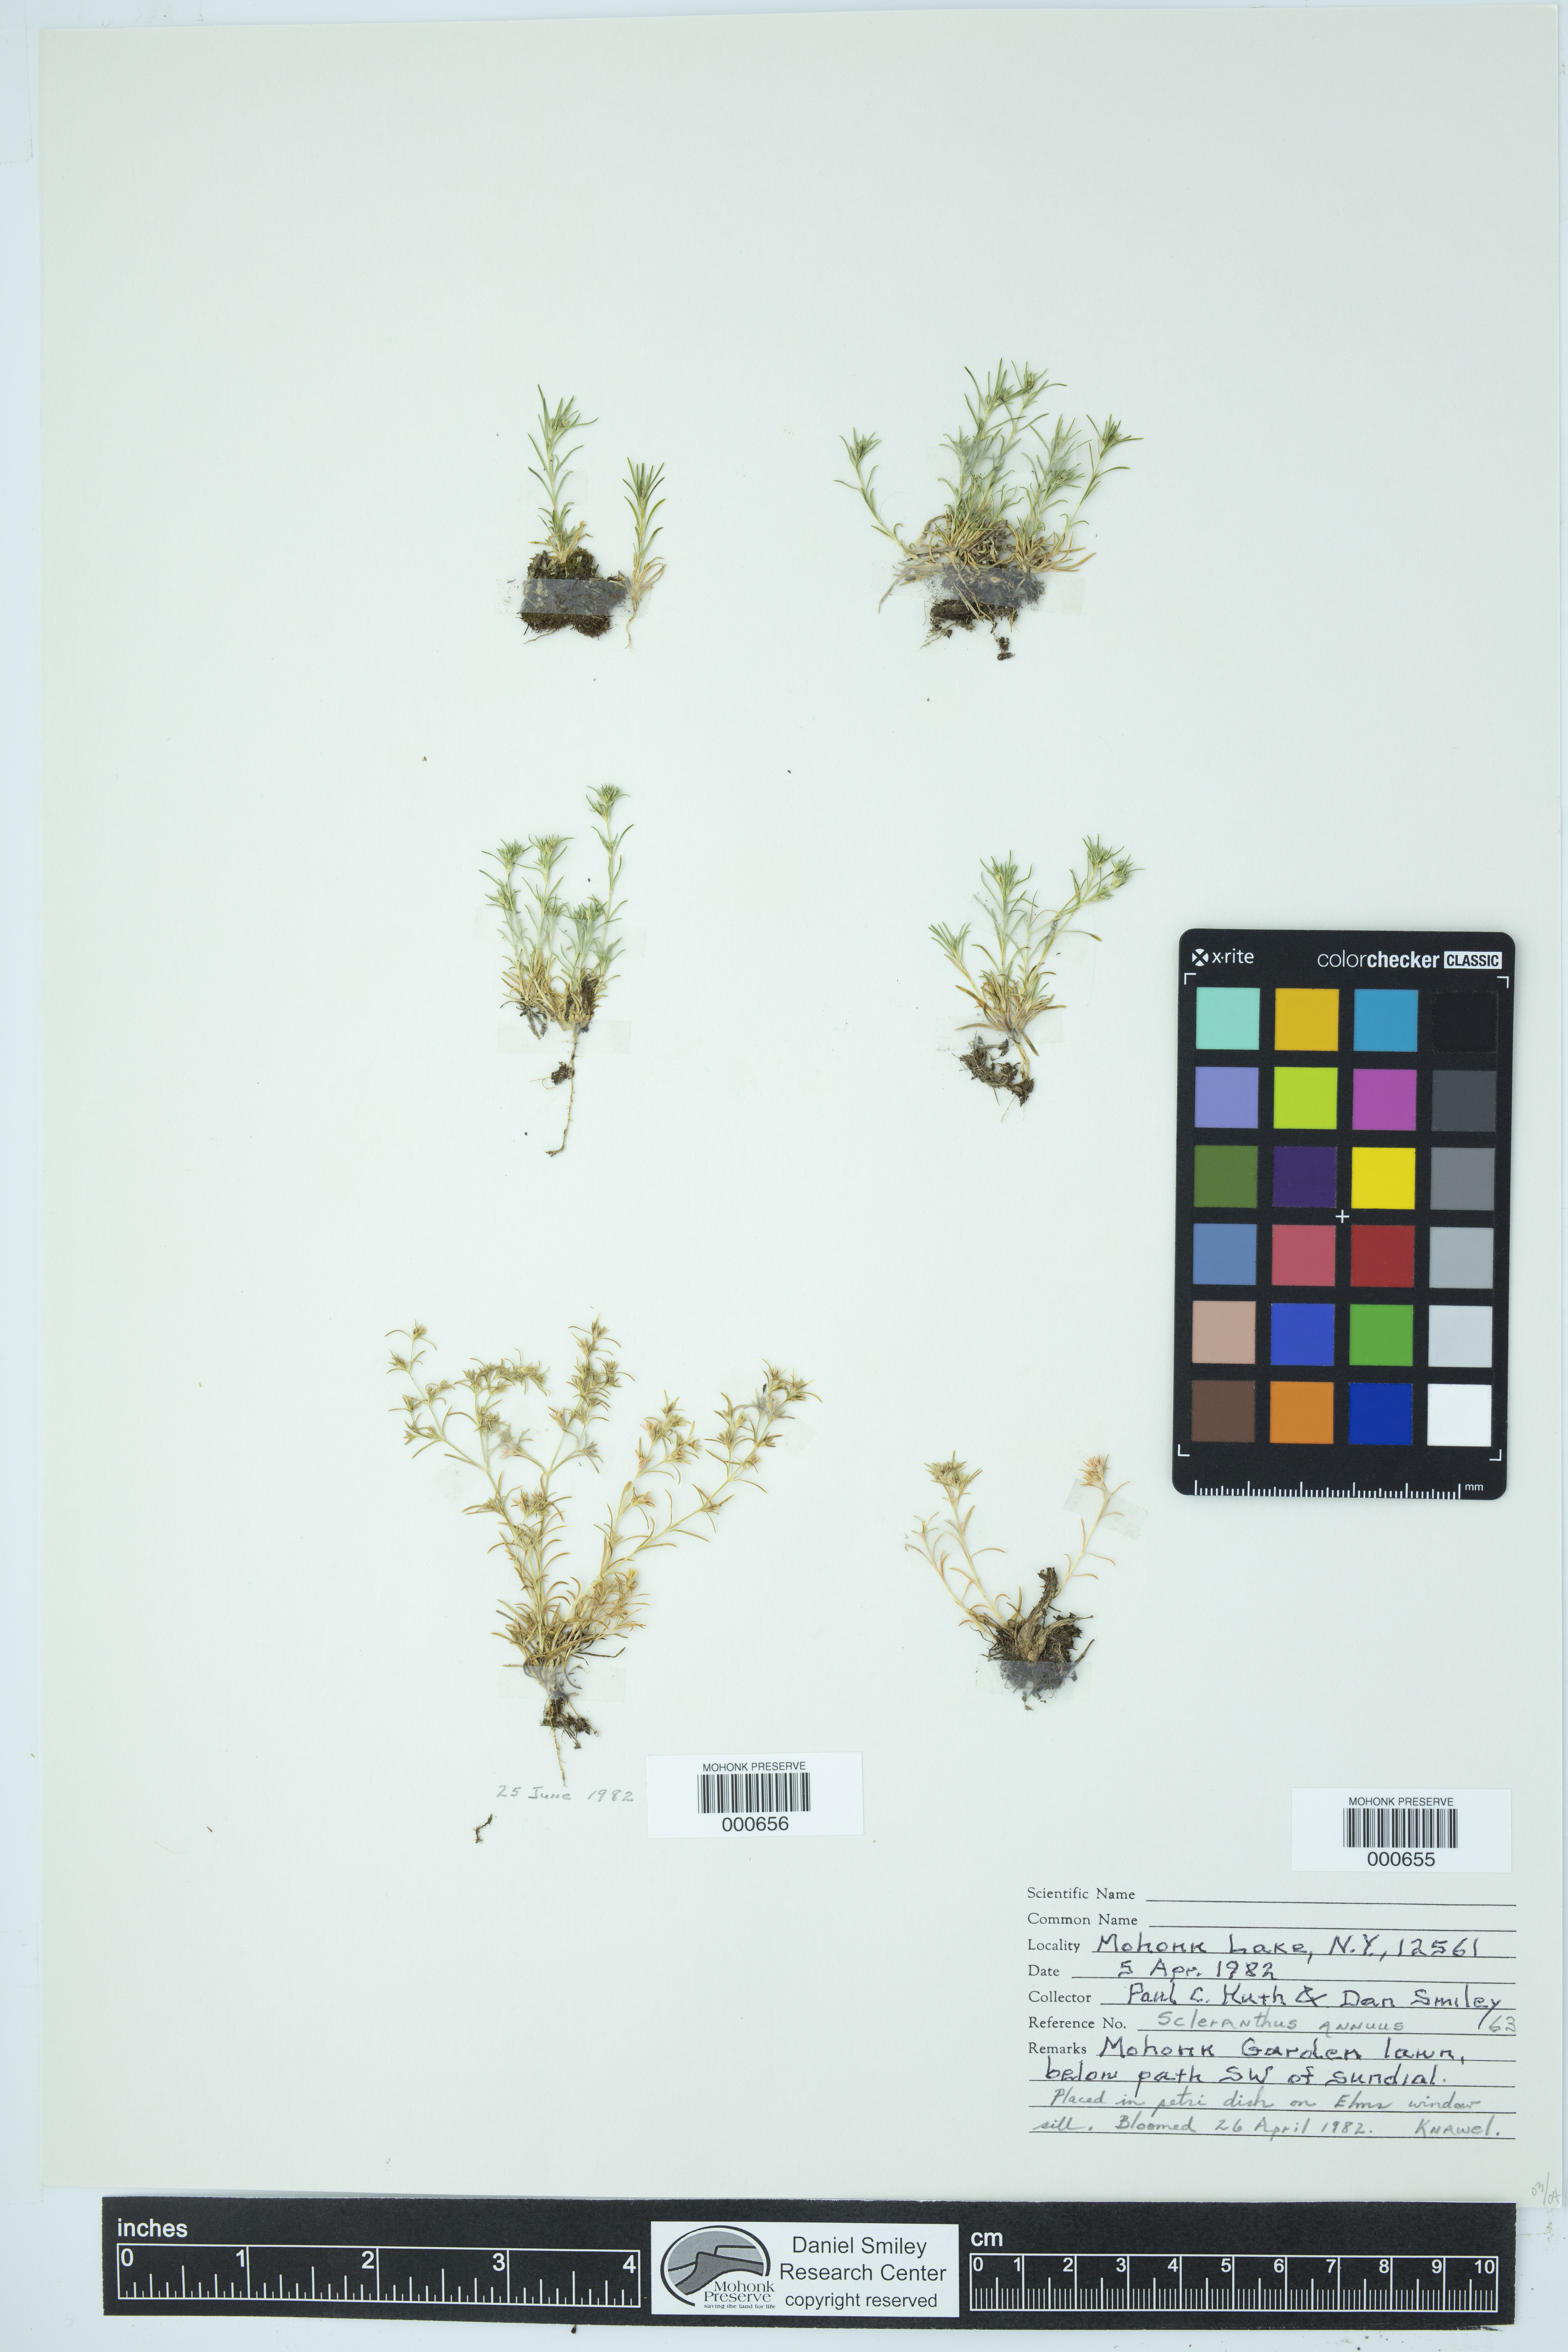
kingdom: Plantae
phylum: Tracheophyta
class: Magnoliopsida
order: Caryophyllales
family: Caryophyllaceae
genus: Scleranthus
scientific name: Scleranthus annuus
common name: Annual knawel
